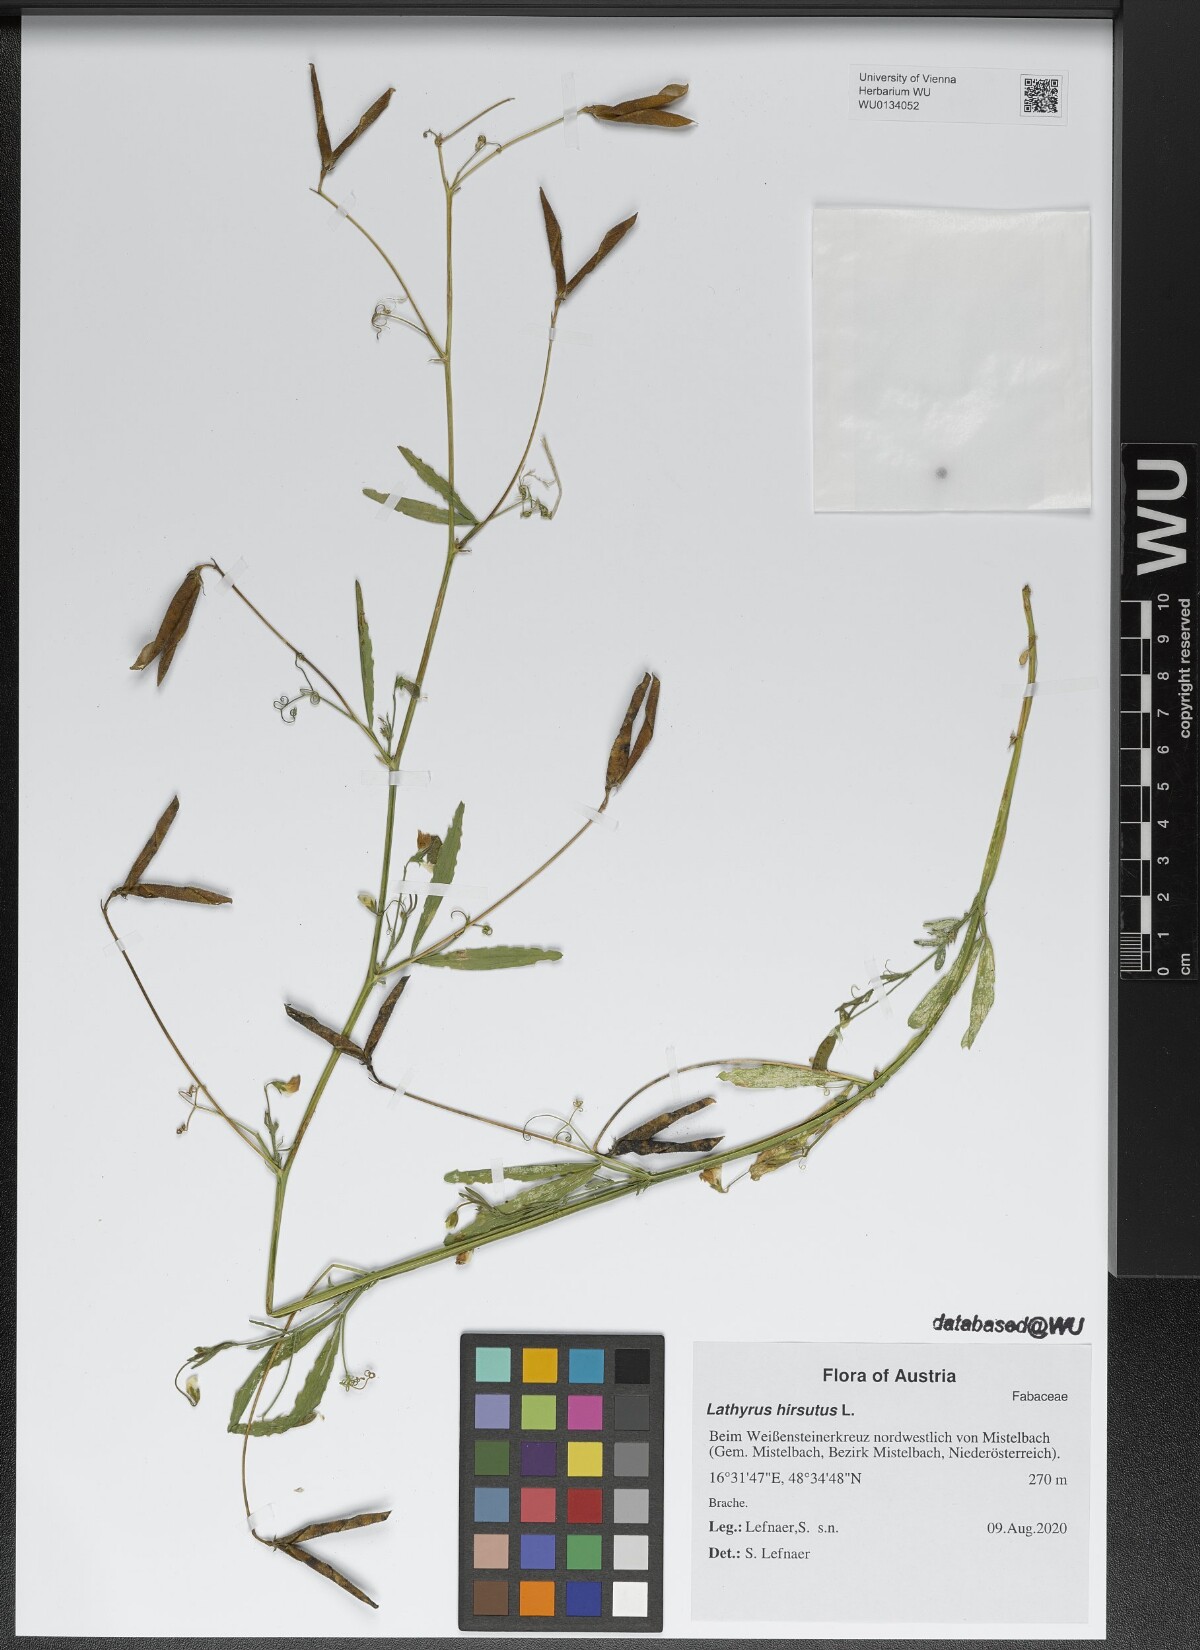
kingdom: Plantae
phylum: Tracheophyta
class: Magnoliopsida
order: Fabales
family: Fabaceae
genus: Lathyrus
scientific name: Lathyrus hirsutus
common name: Hairy vetchling
